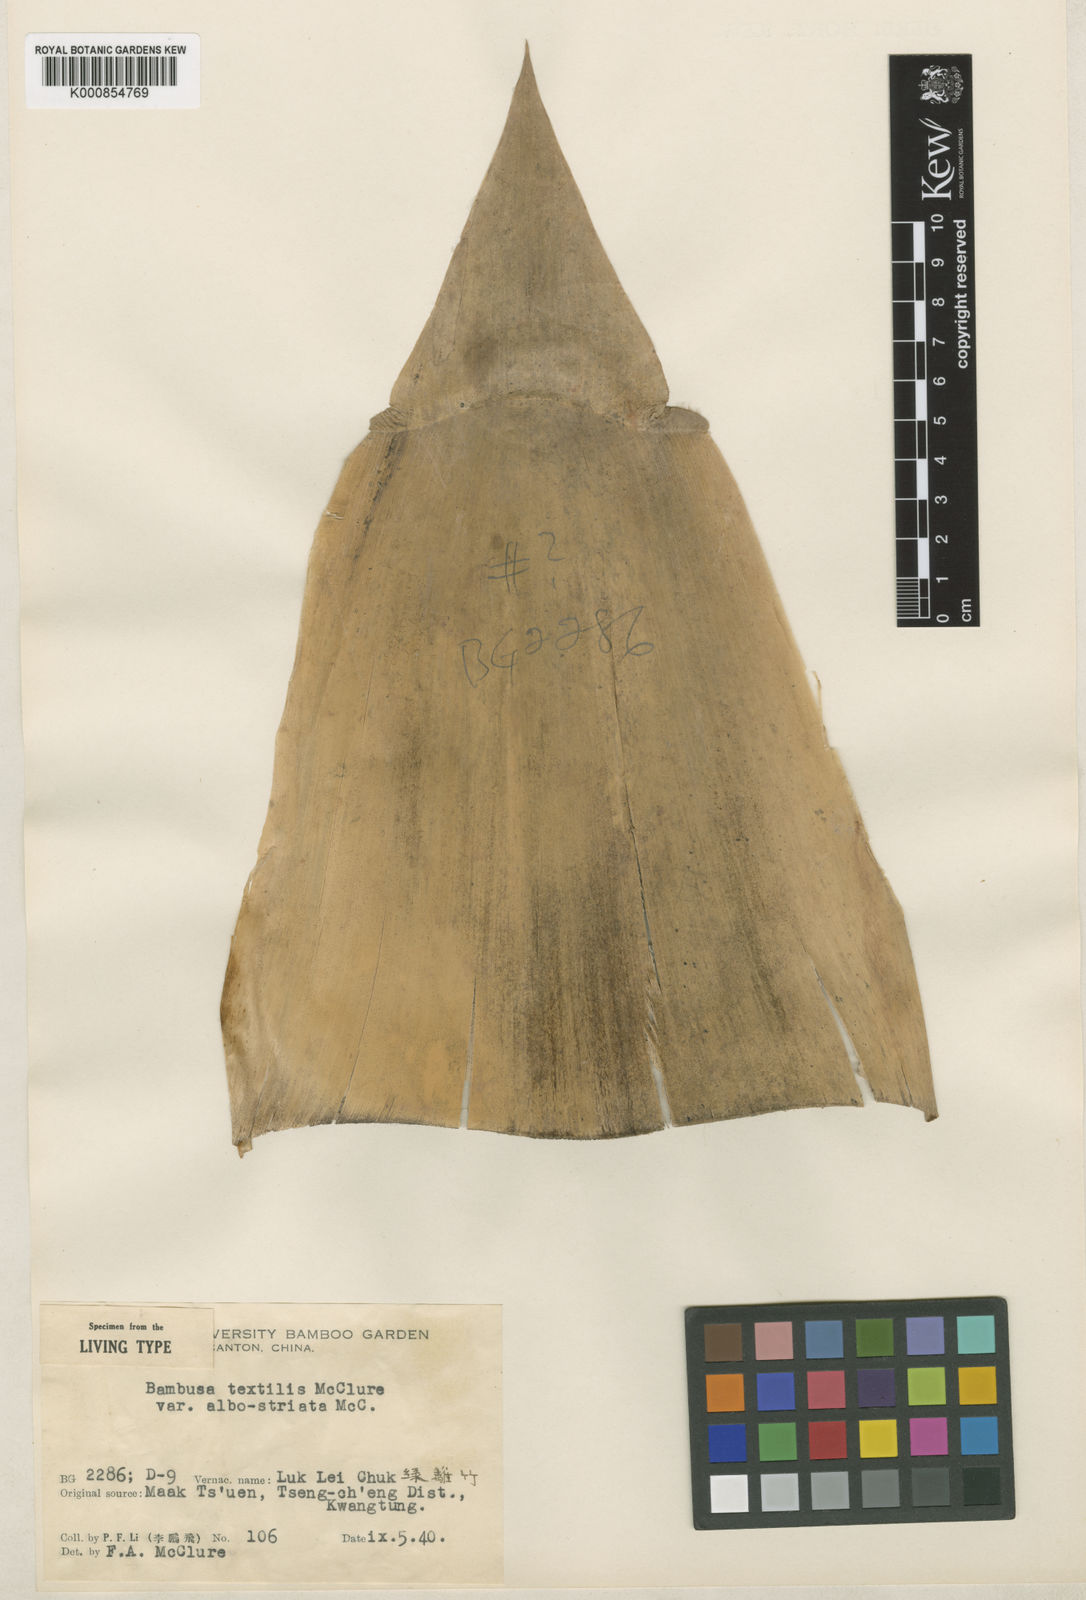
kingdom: Plantae
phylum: Tracheophyta
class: Liliopsida
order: Poales
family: Poaceae
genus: Bambusa
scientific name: Bambusa albolineata
